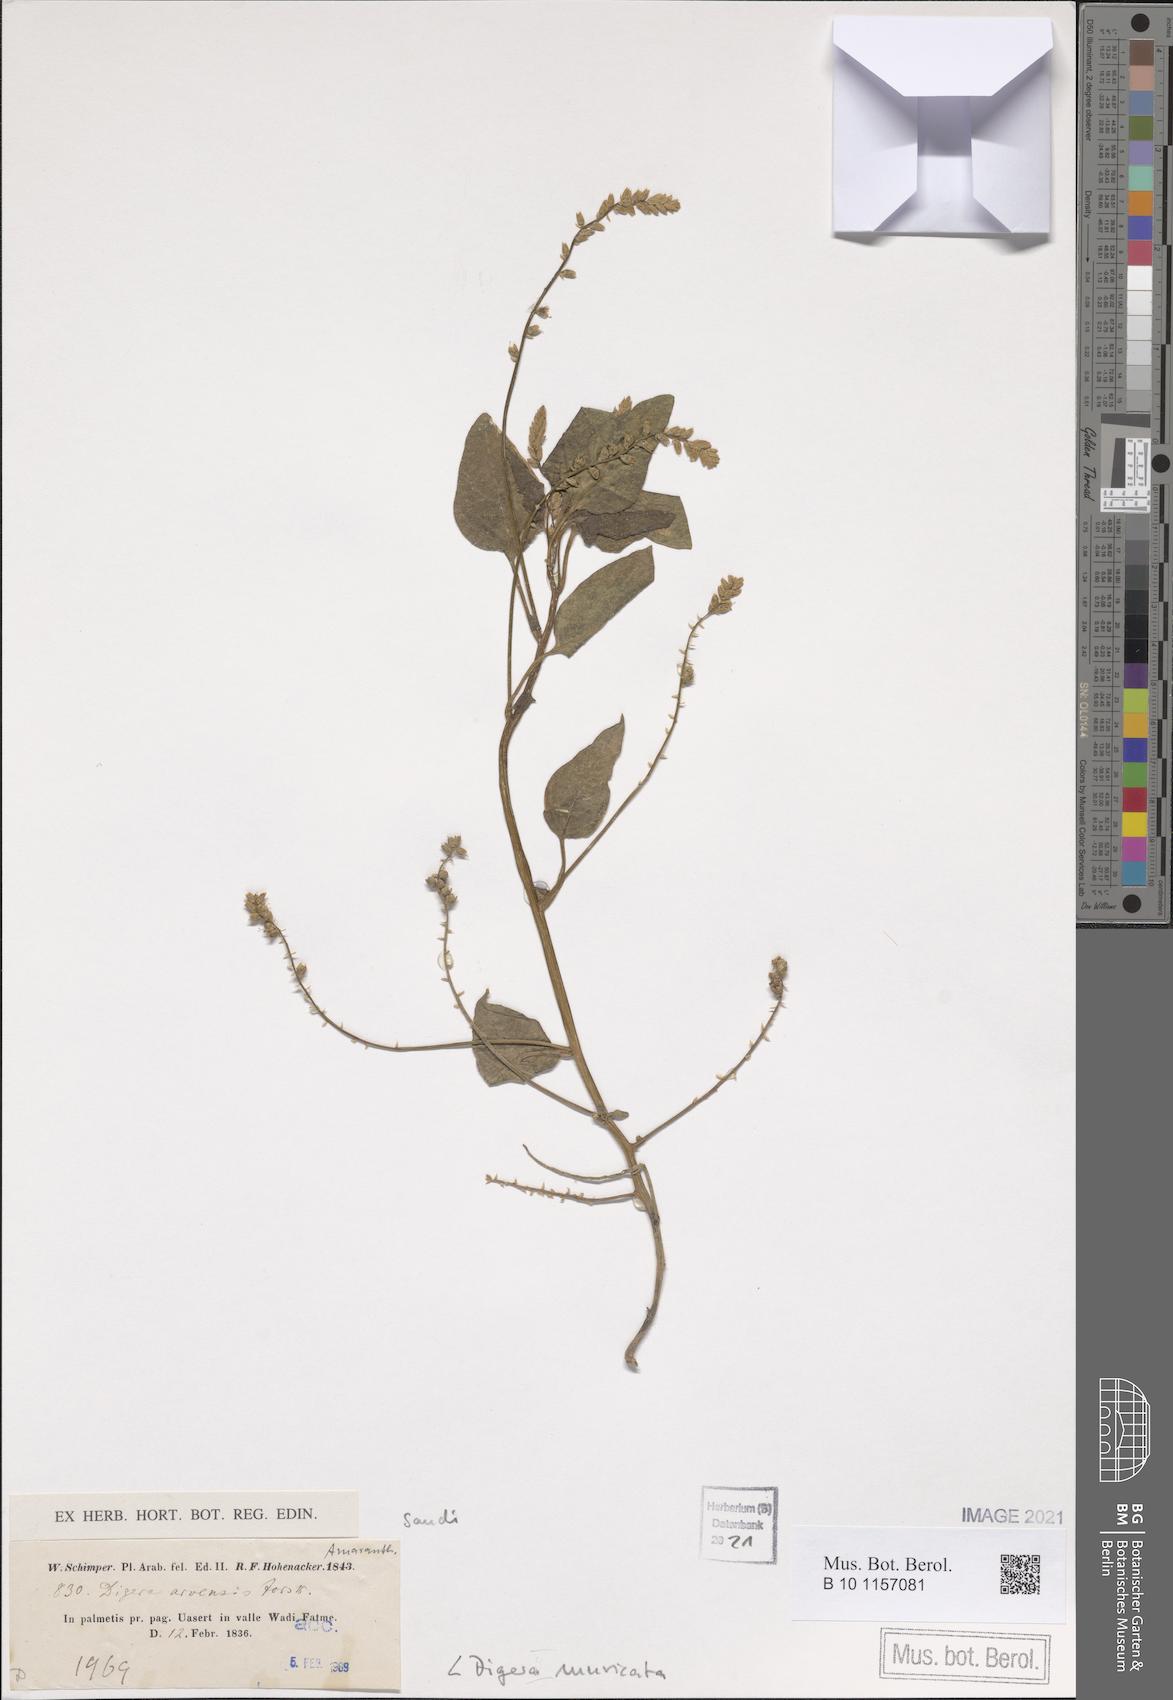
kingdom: Plantae
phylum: Tracheophyta
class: Magnoliopsida
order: Caryophyllales
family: Amaranthaceae
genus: Digera
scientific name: Digera muricata
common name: False amaranth
